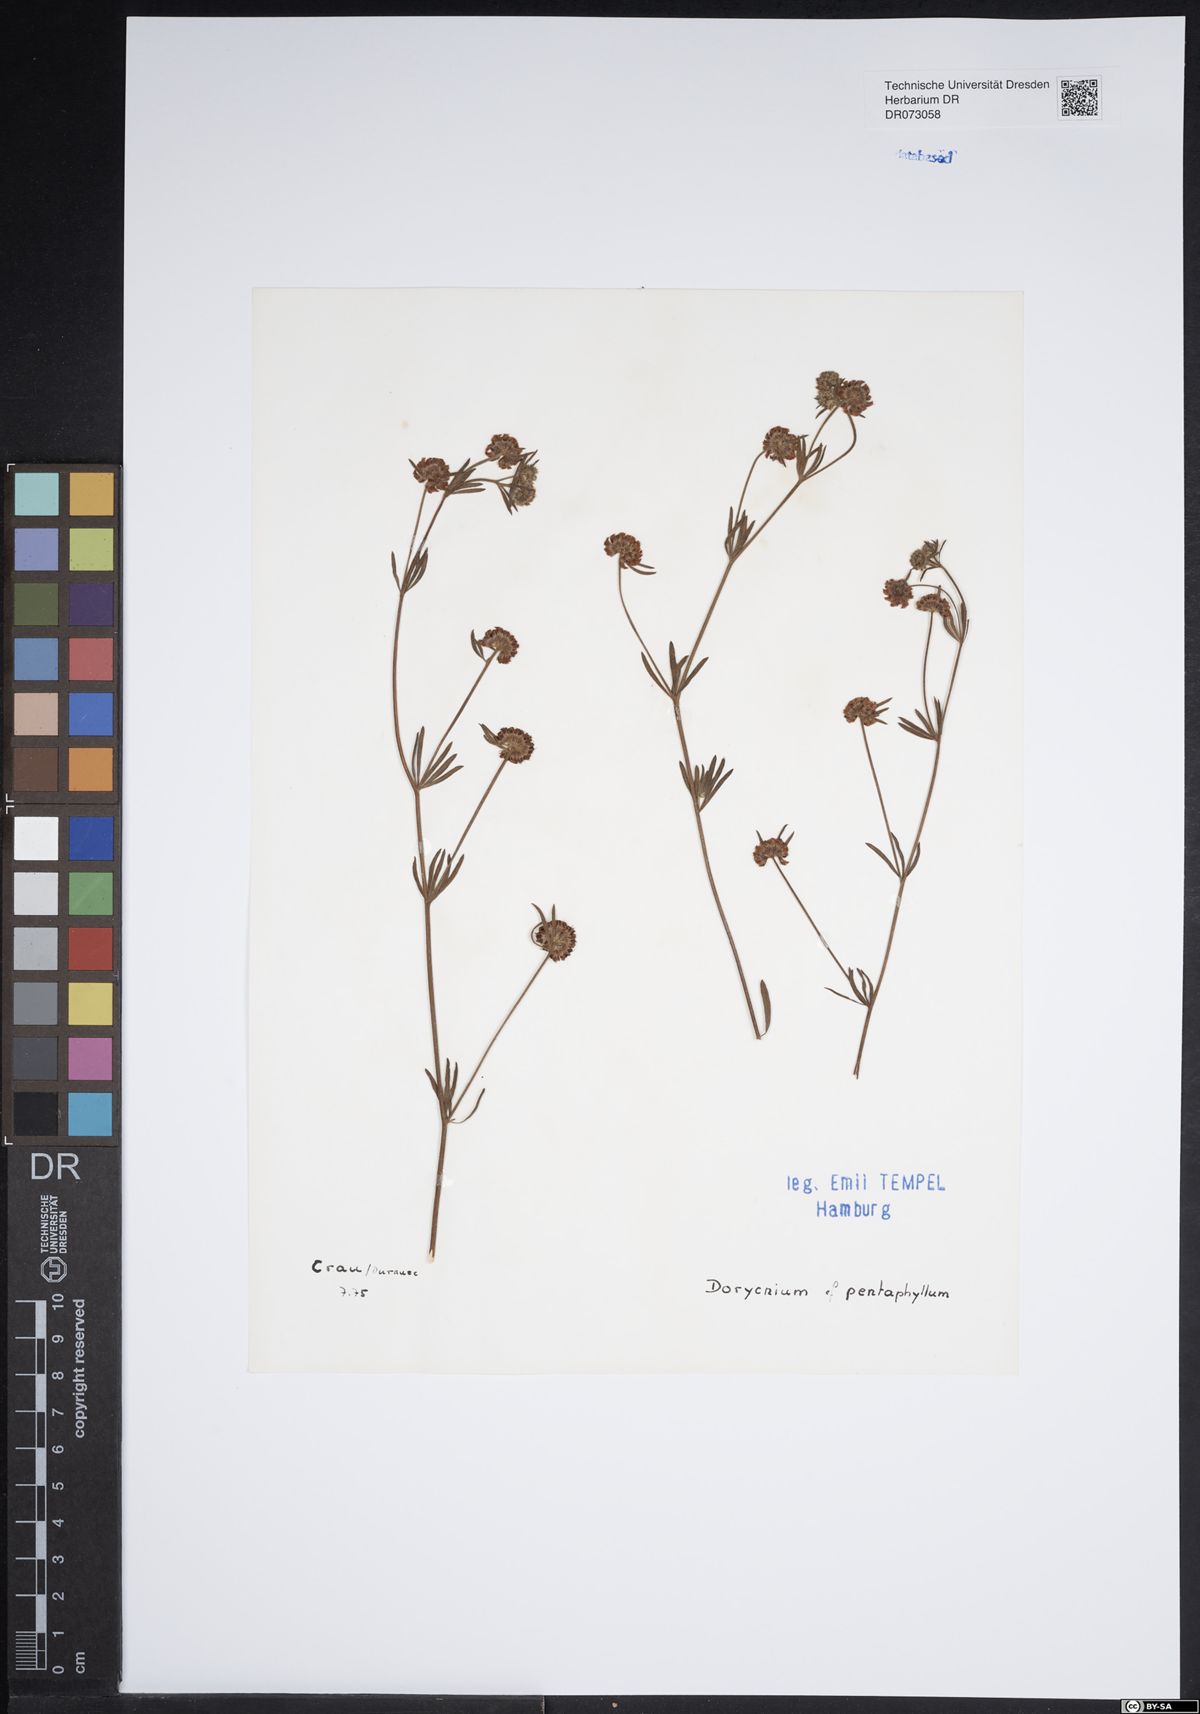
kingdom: Plantae
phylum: Tracheophyta
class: Magnoliopsida
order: Fabales
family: Fabaceae
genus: Lotus
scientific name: Lotus dorycnium
